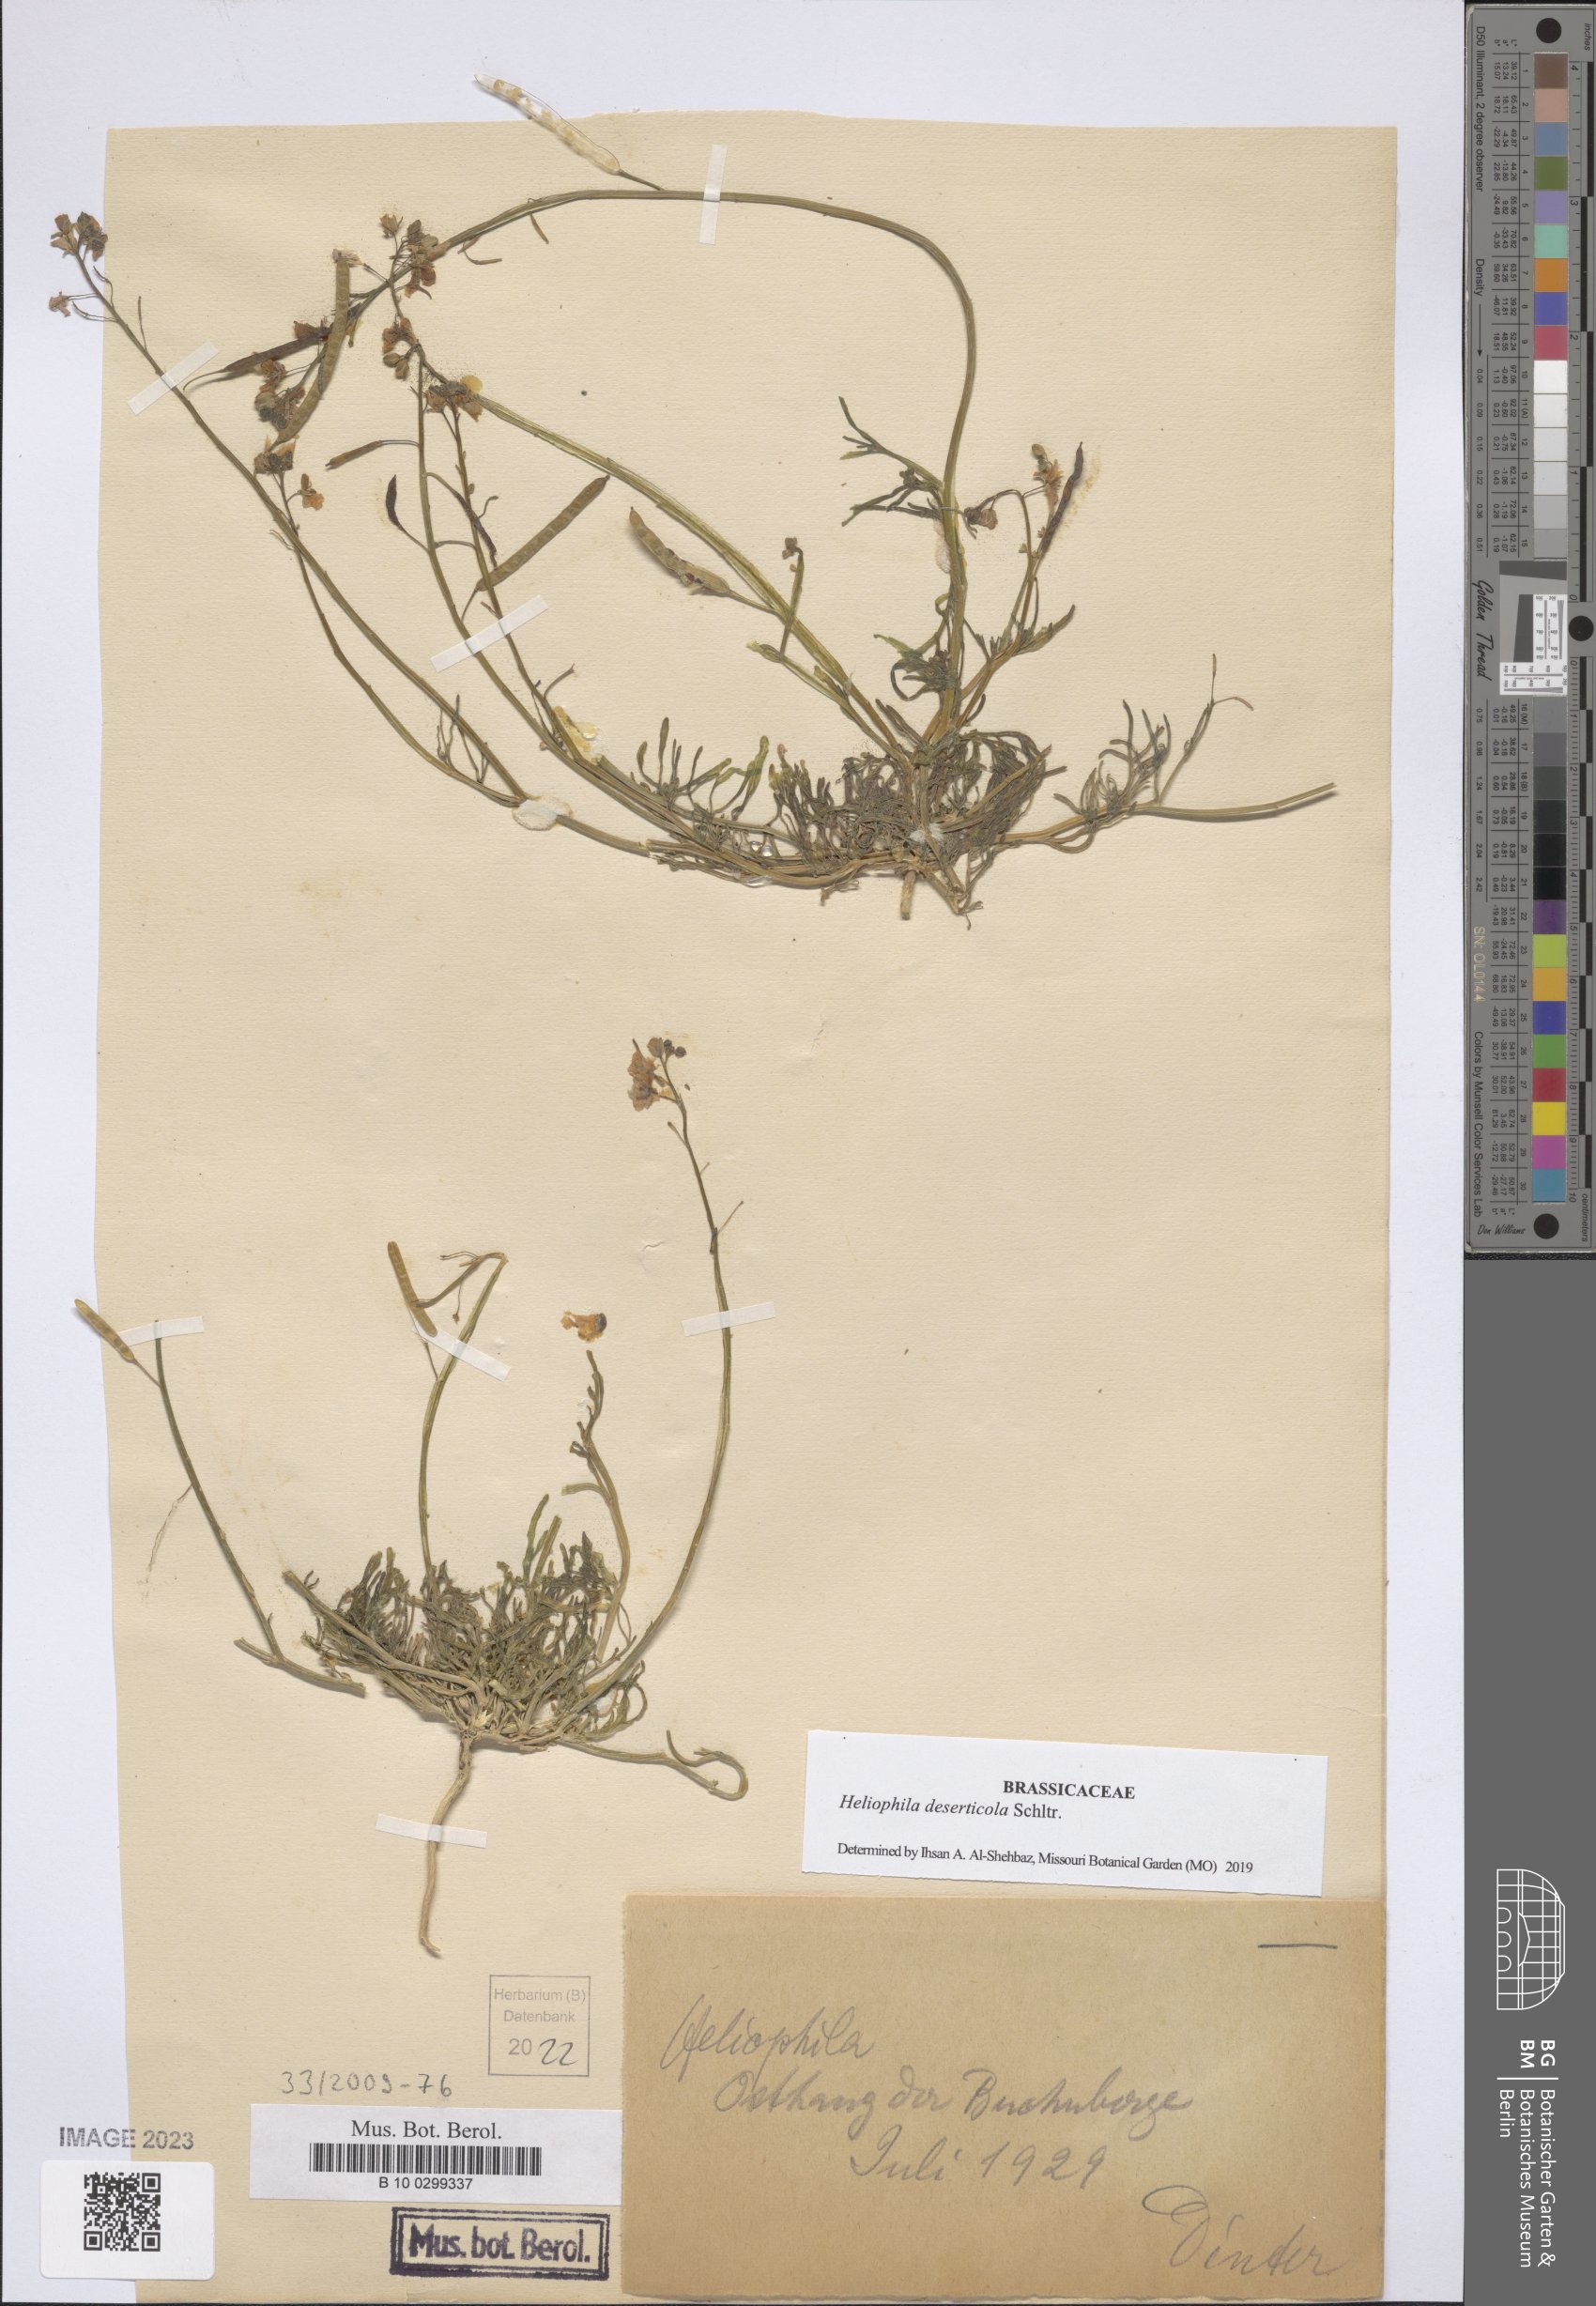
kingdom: Plantae
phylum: Tracheophyta
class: Magnoliopsida
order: Brassicales
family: Brassicaceae
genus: Heliophila
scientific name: Heliophila deserticola
